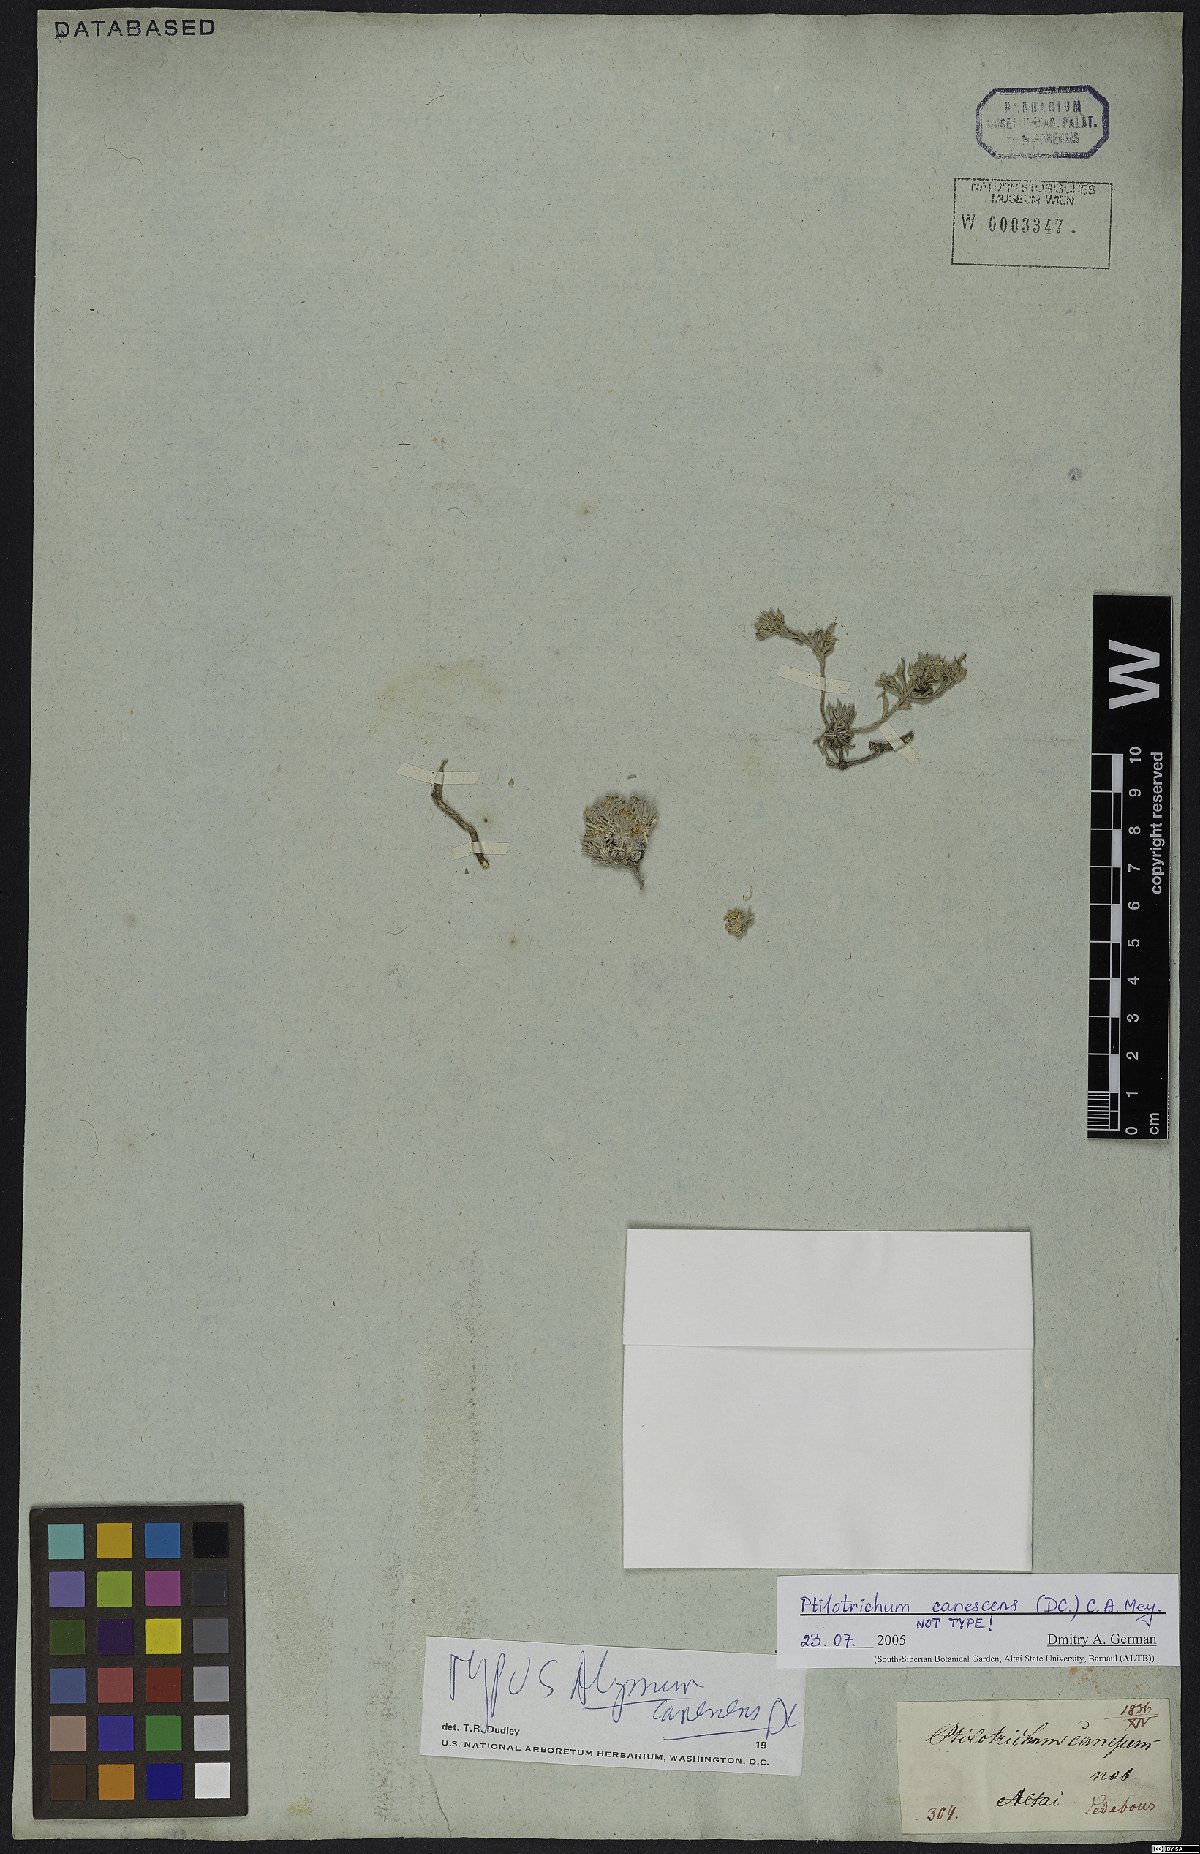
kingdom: Plantae
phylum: Tracheophyta
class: Magnoliopsida
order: Brassicales
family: Brassicaceae
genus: Stevenia
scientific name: Stevenia canescens
